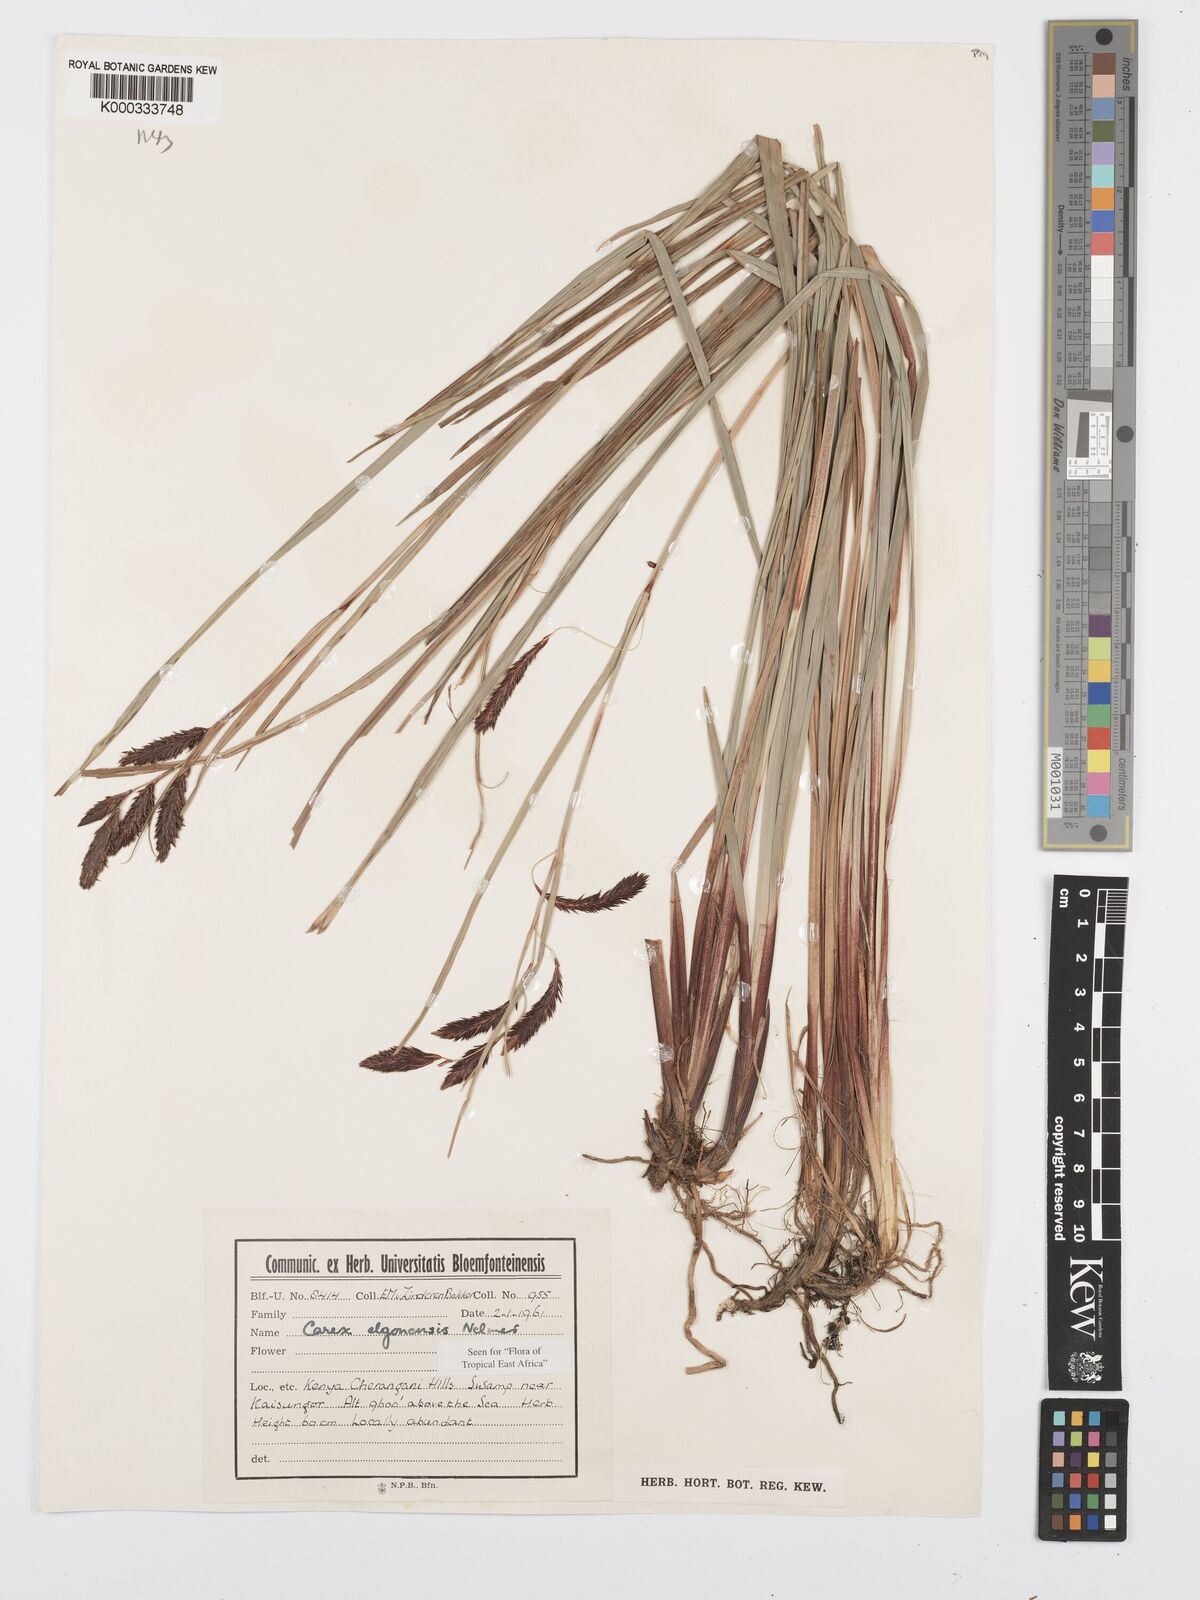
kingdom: Plantae
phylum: Tracheophyta
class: Liliopsida
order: Poales
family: Cyperaceae
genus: Carex
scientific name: Carex elgonensis
